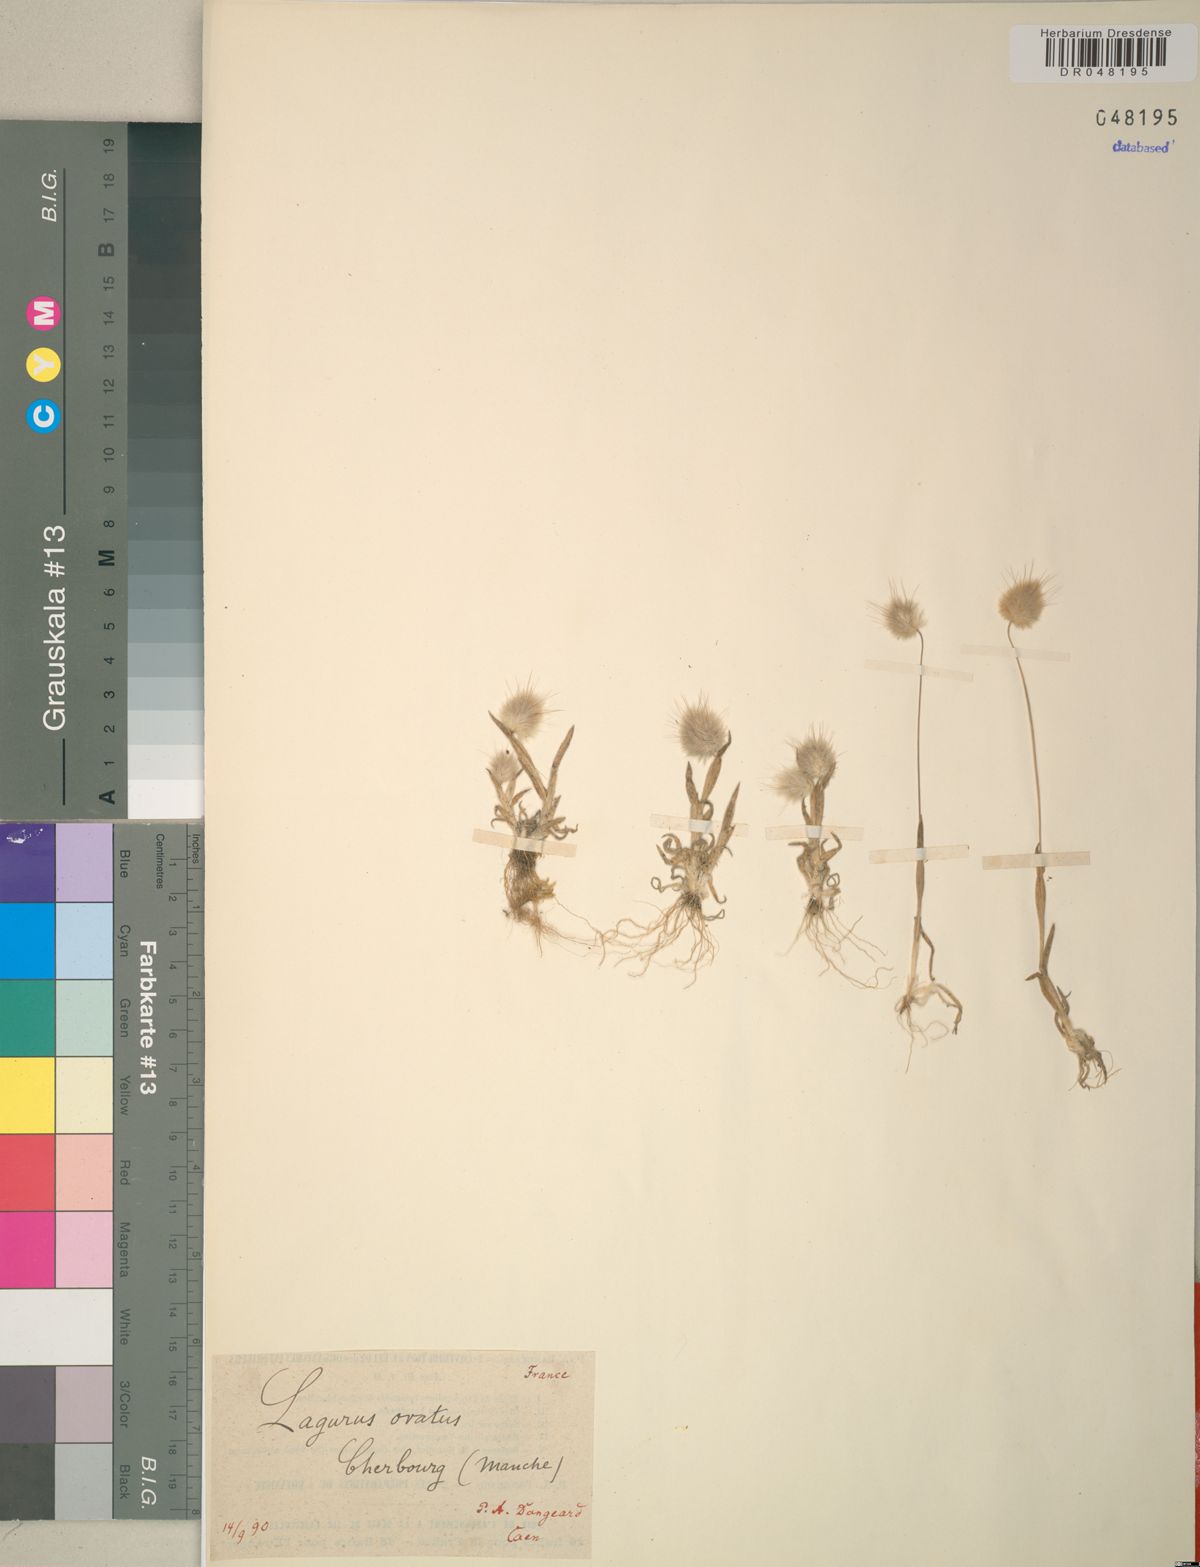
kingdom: Plantae
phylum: Tracheophyta
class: Liliopsida
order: Poales
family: Poaceae
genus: Lagurus
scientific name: Lagurus ovatus
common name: Hare's-tail
